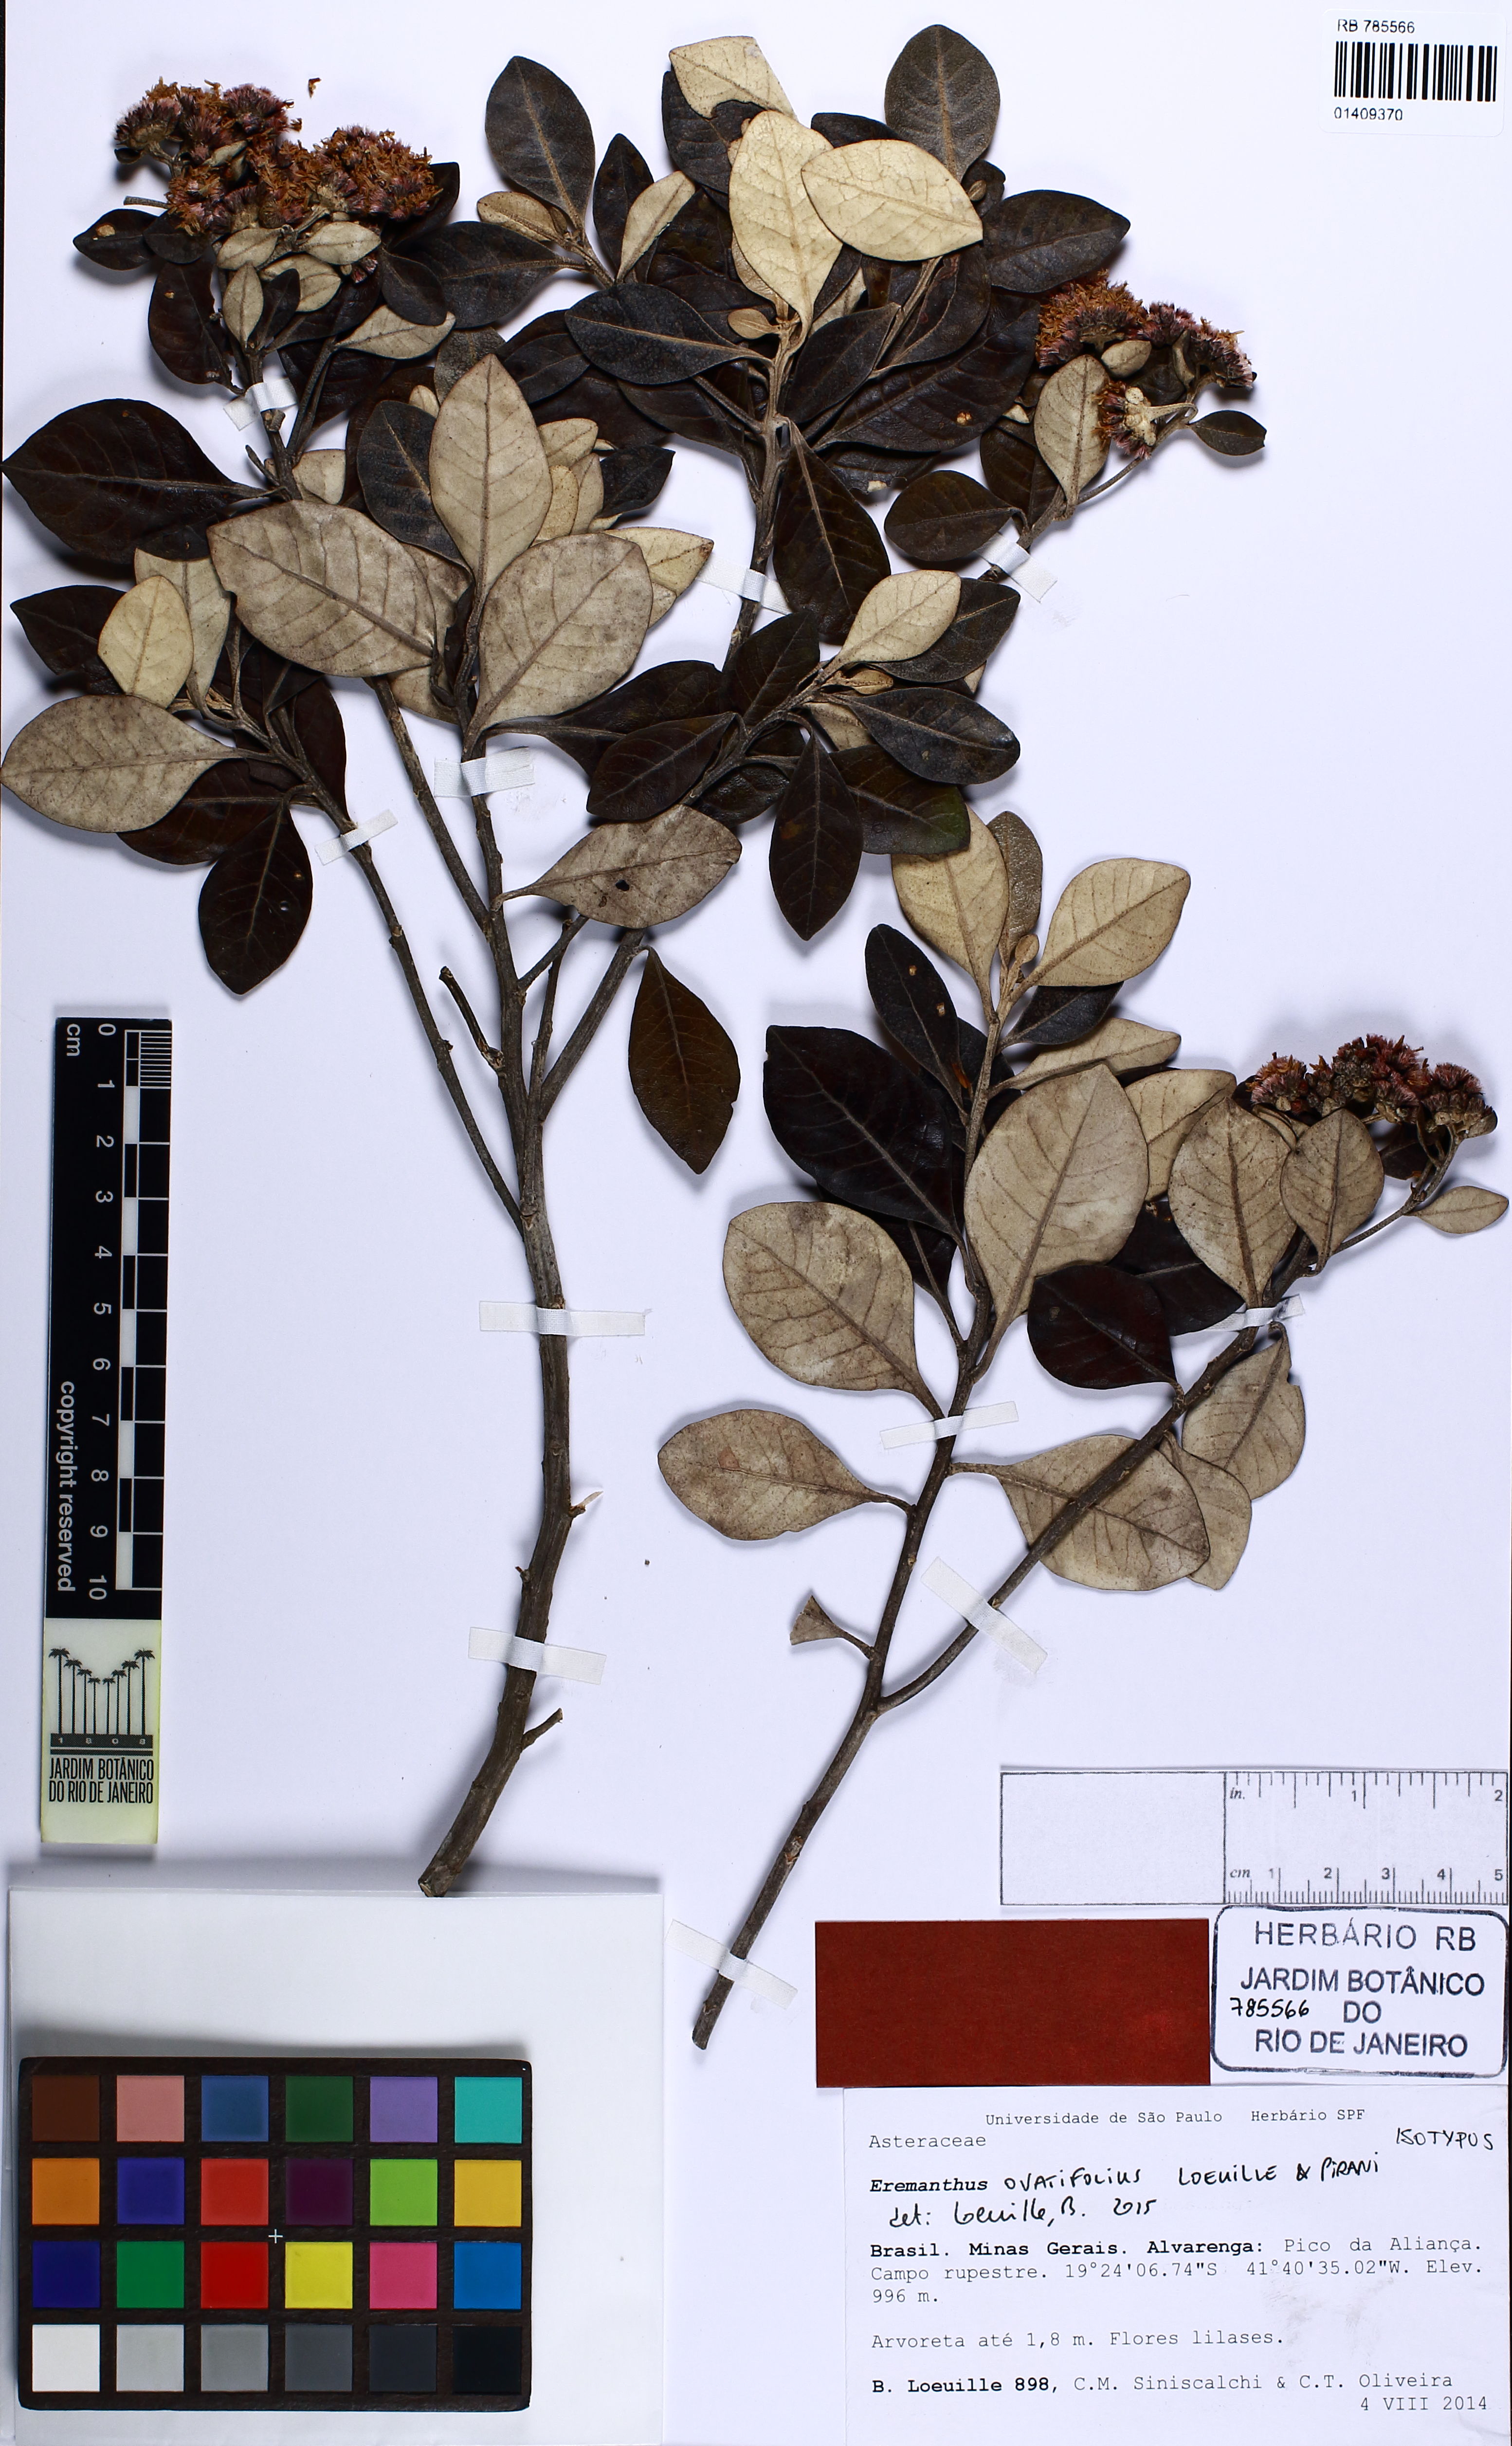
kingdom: Plantae
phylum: Tracheophyta
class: Magnoliopsida
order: Asterales
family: Asteraceae
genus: Eremanthus
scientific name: Eremanthus ovatifolius
